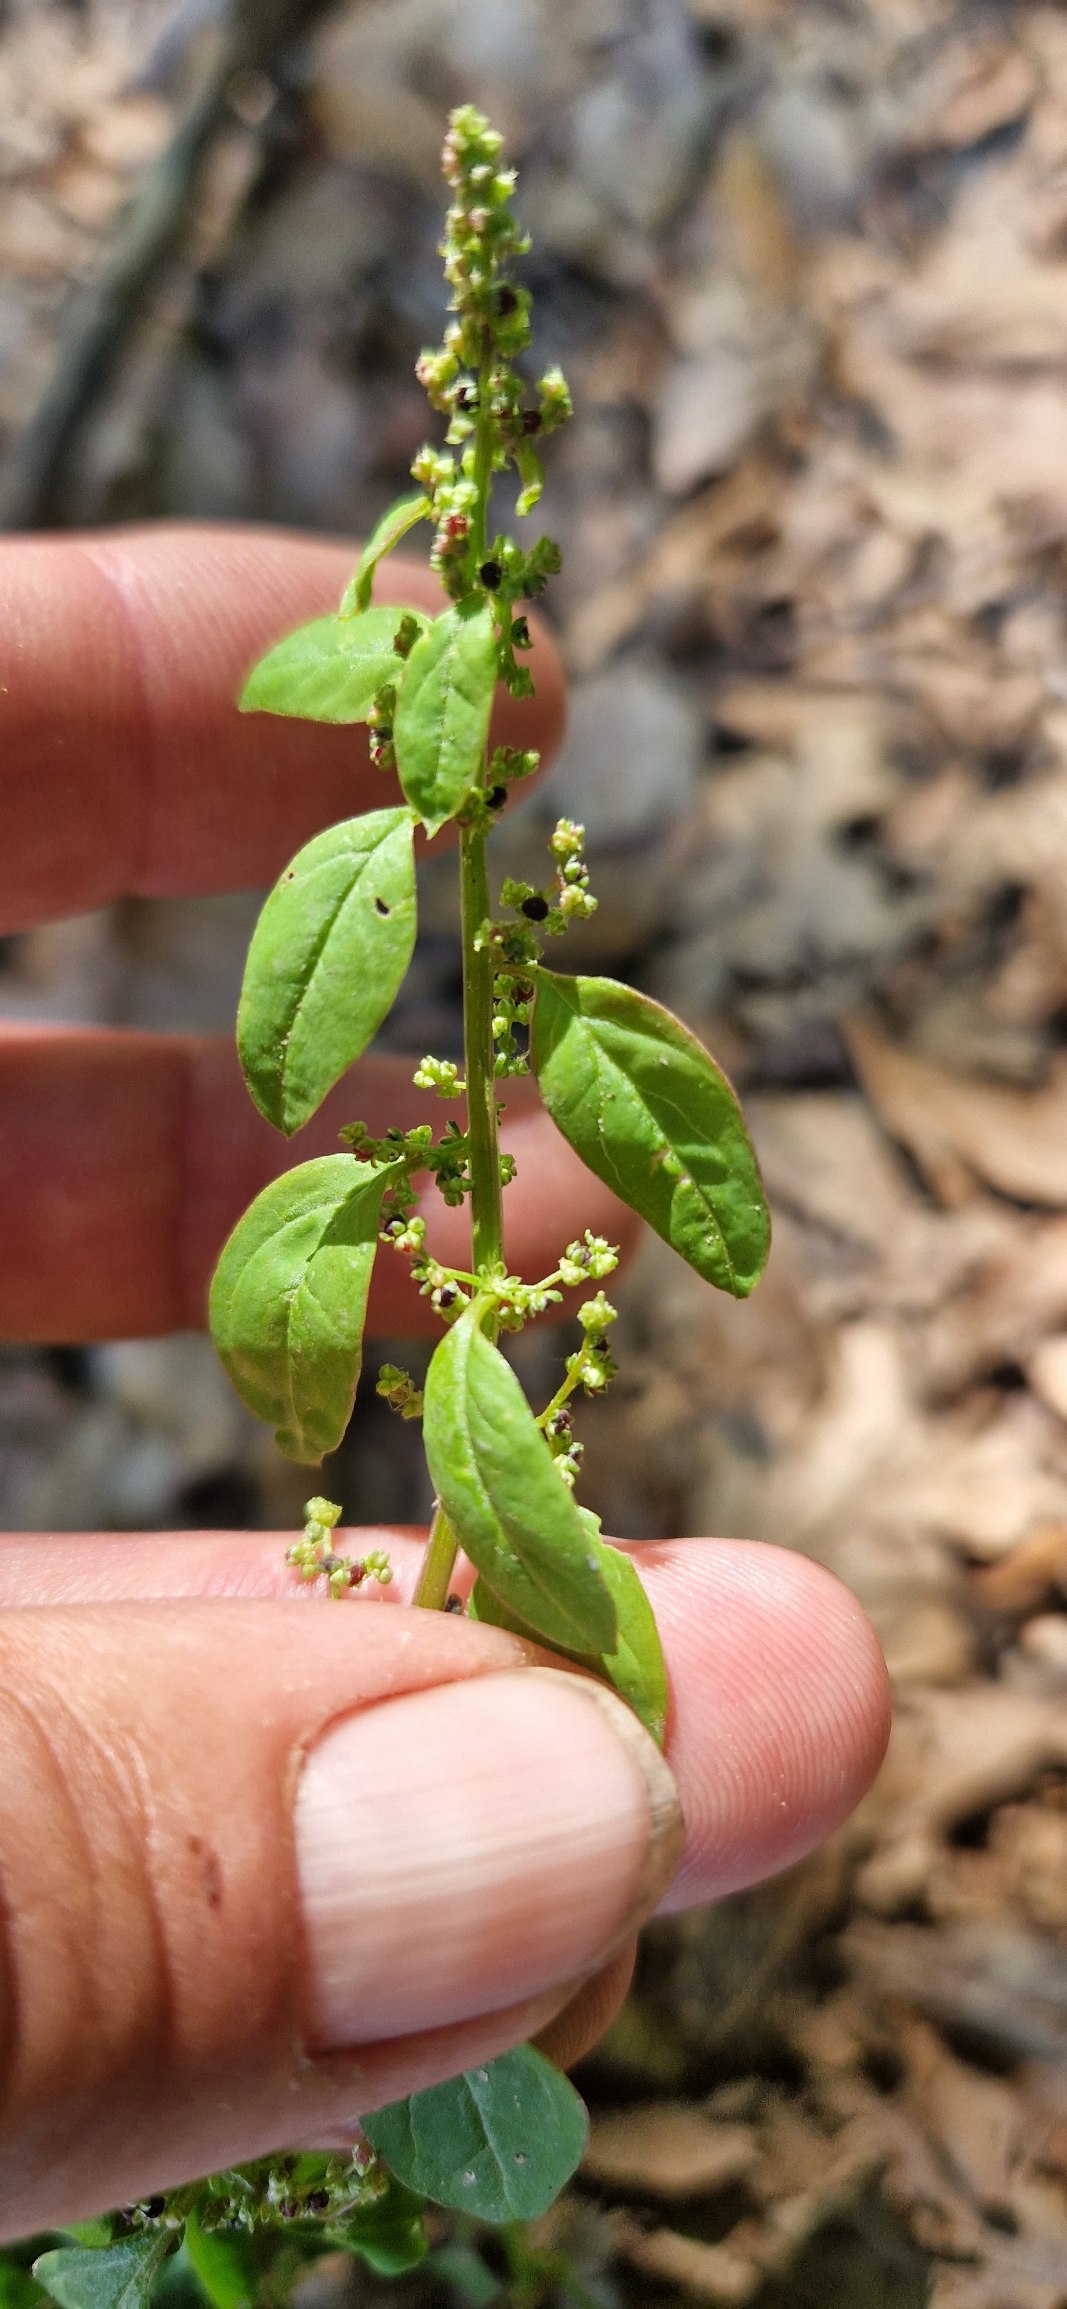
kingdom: Plantae
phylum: Tracheophyta
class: Magnoliopsida
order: Caryophyllales
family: Amaranthaceae
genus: Lipandra
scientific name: Lipandra polysperma
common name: Mangefrøet gåsefod
